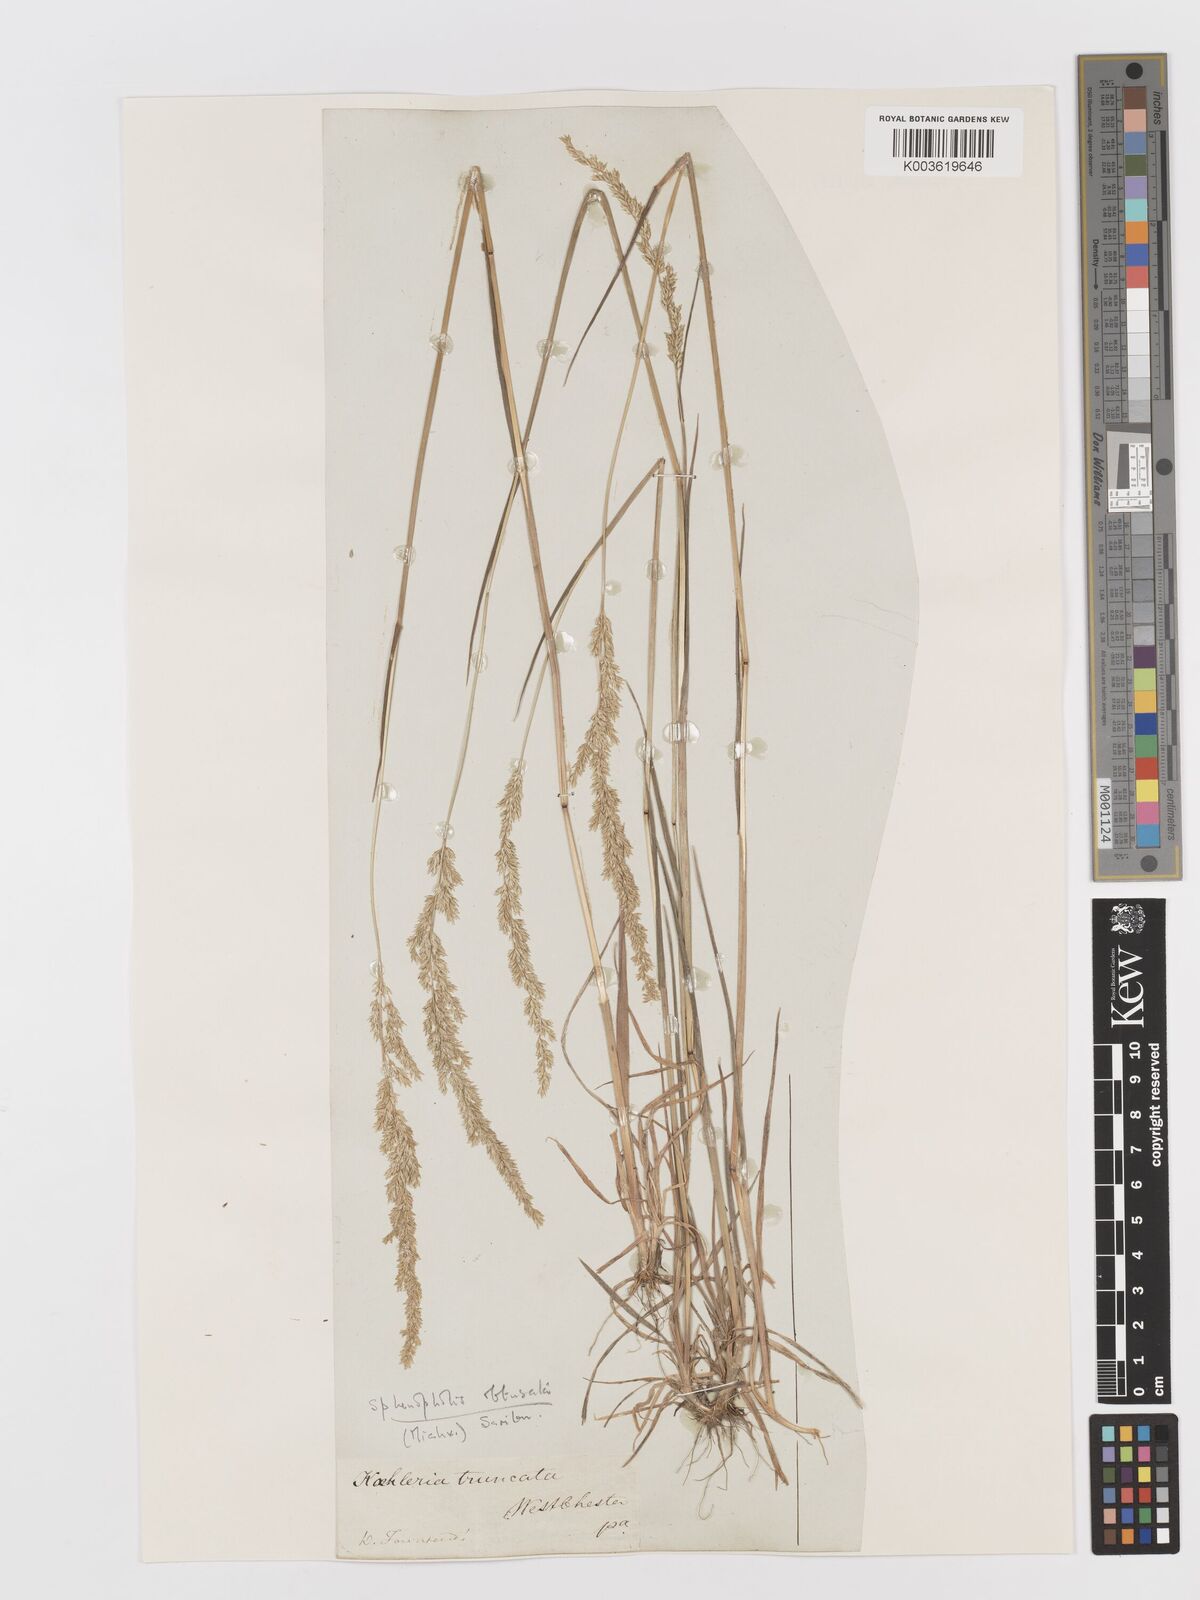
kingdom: Plantae
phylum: Tracheophyta
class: Liliopsida
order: Poales
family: Poaceae
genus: Sphenopholis
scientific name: Sphenopholis obtusata
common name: Prairie grass
